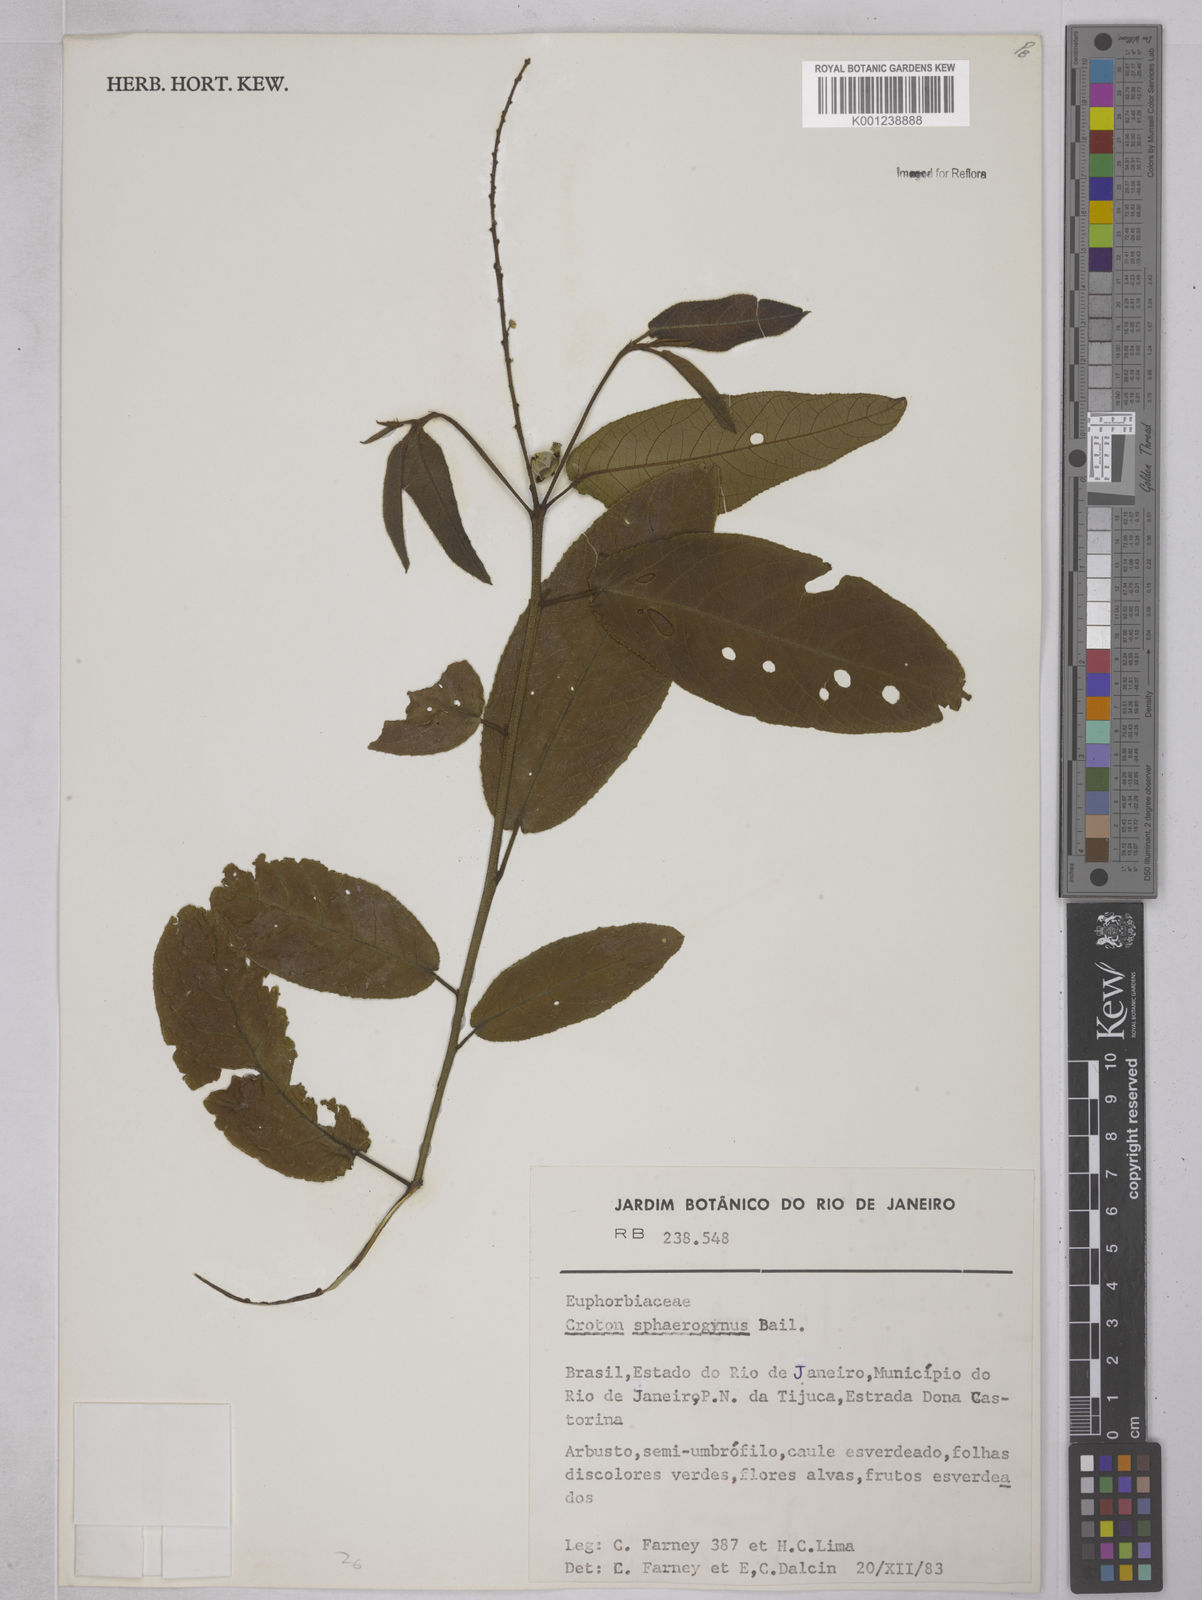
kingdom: Plantae
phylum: Tracheophyta
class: Magnoliopsida
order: Malpighiales
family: Euphorbiaceae
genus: Croton
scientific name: Croton sphaerogynus
